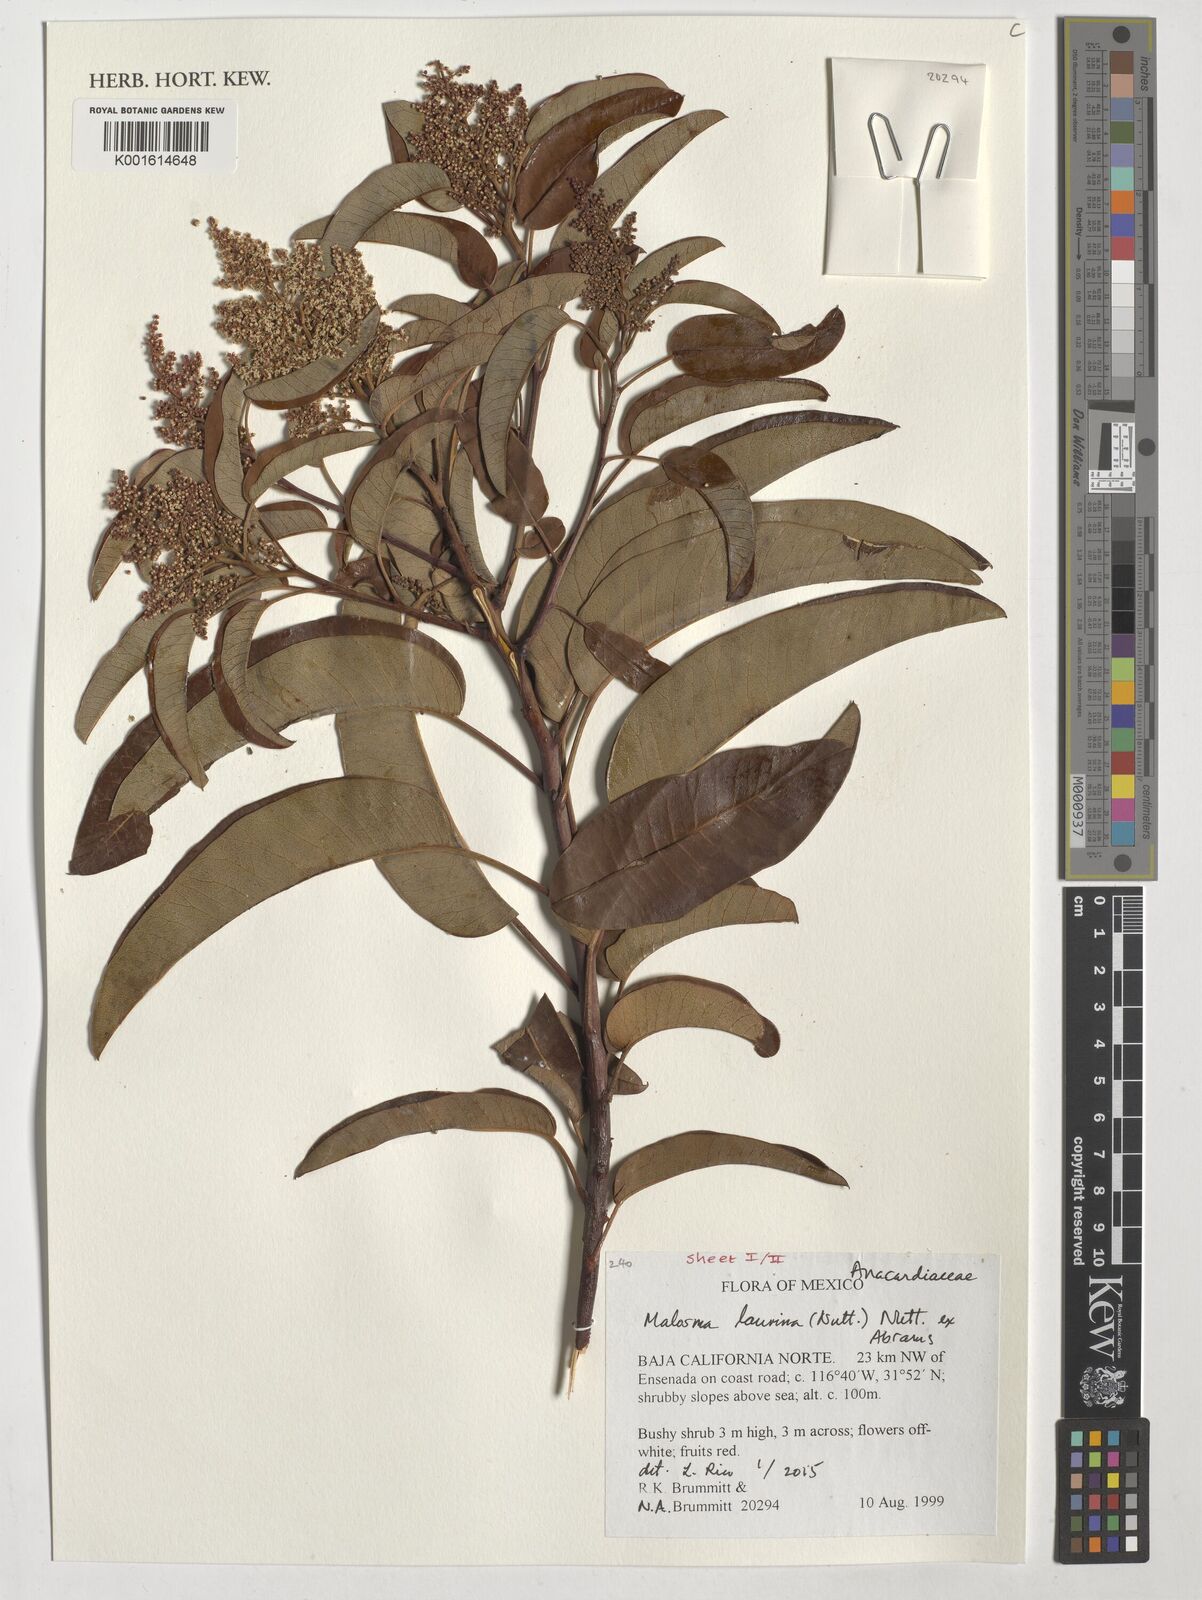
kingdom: Plantae
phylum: Tracheophyta
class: Magnoliopsida
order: Sapindales
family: Anacardiaceae
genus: Malosma
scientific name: Malosma laurina
